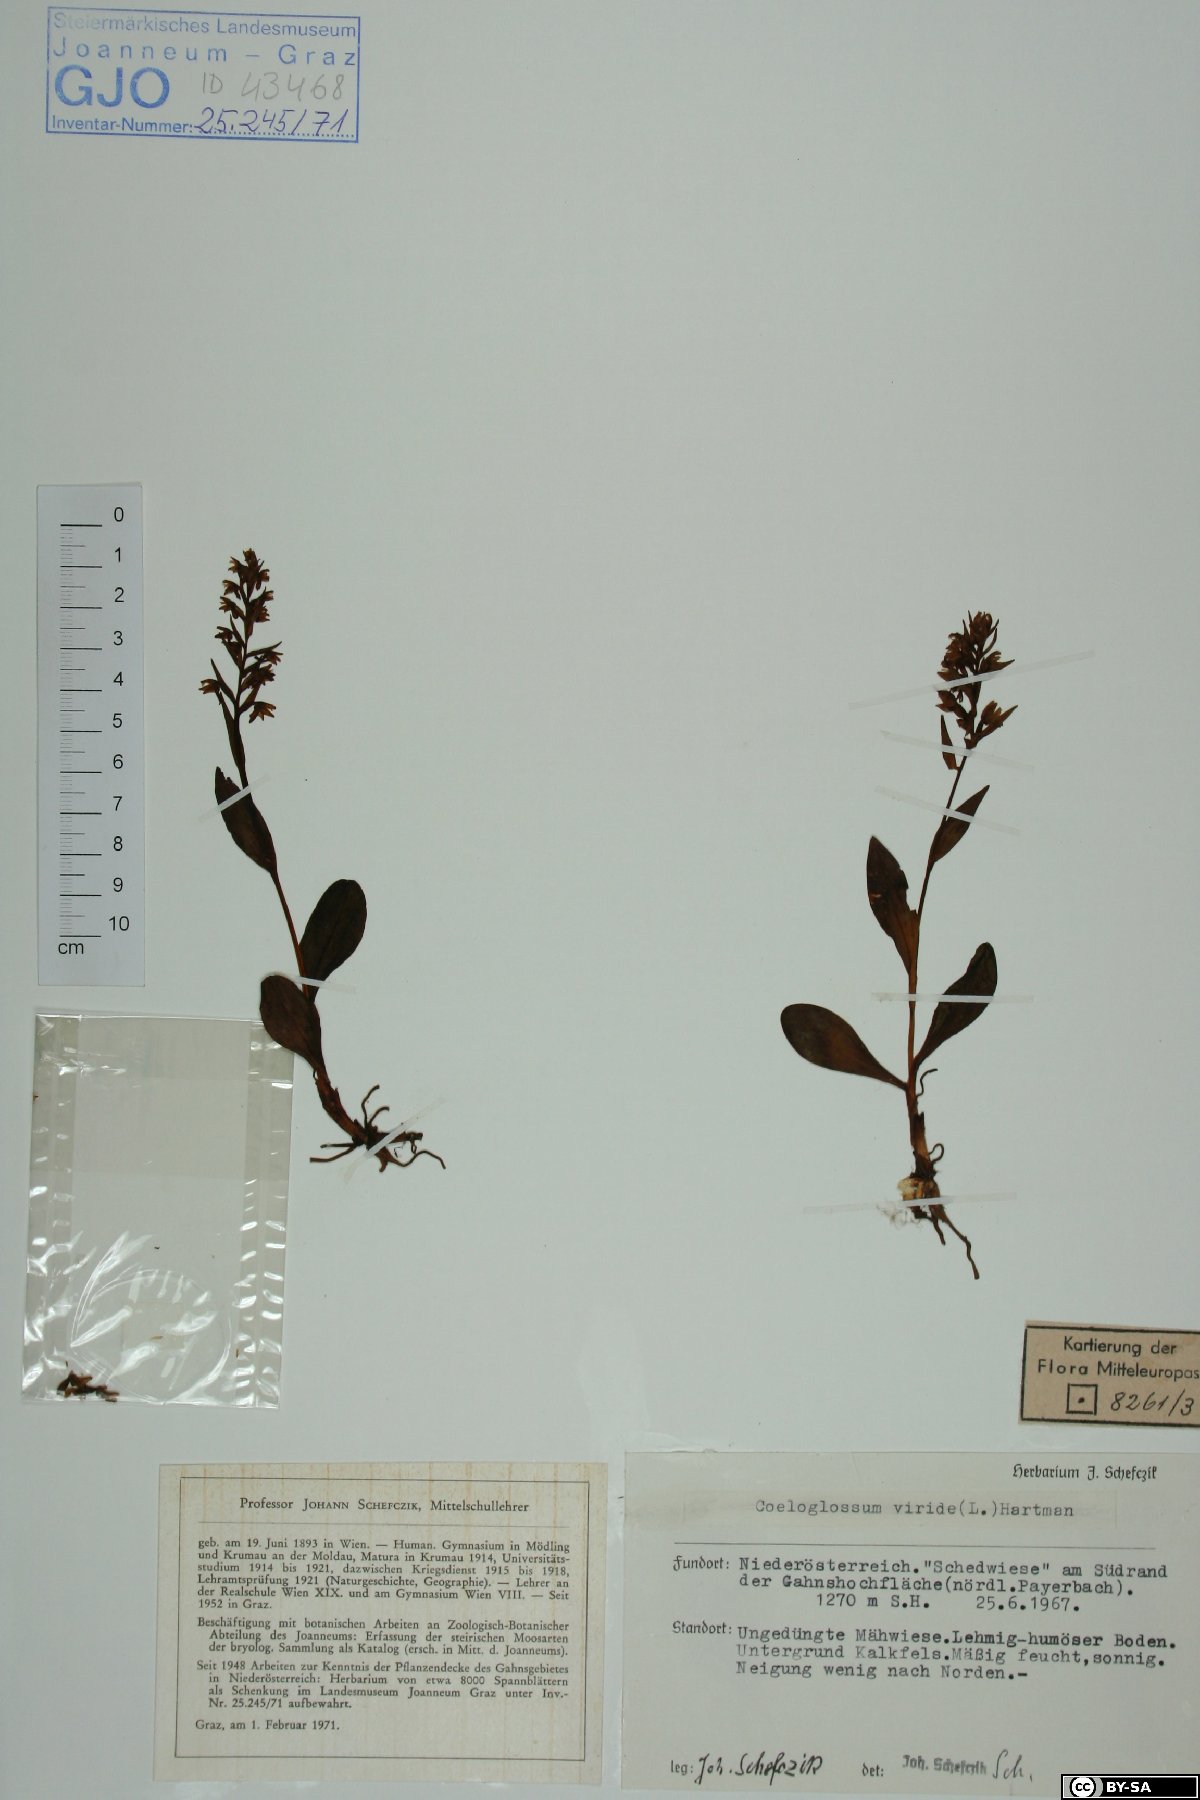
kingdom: Plantae
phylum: Tracheophyta
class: Liliopsida
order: Asparagales
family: Orchidaceae
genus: Dactylorhiza
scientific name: Dactylorhiza viridis
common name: Longbract frog orchid
